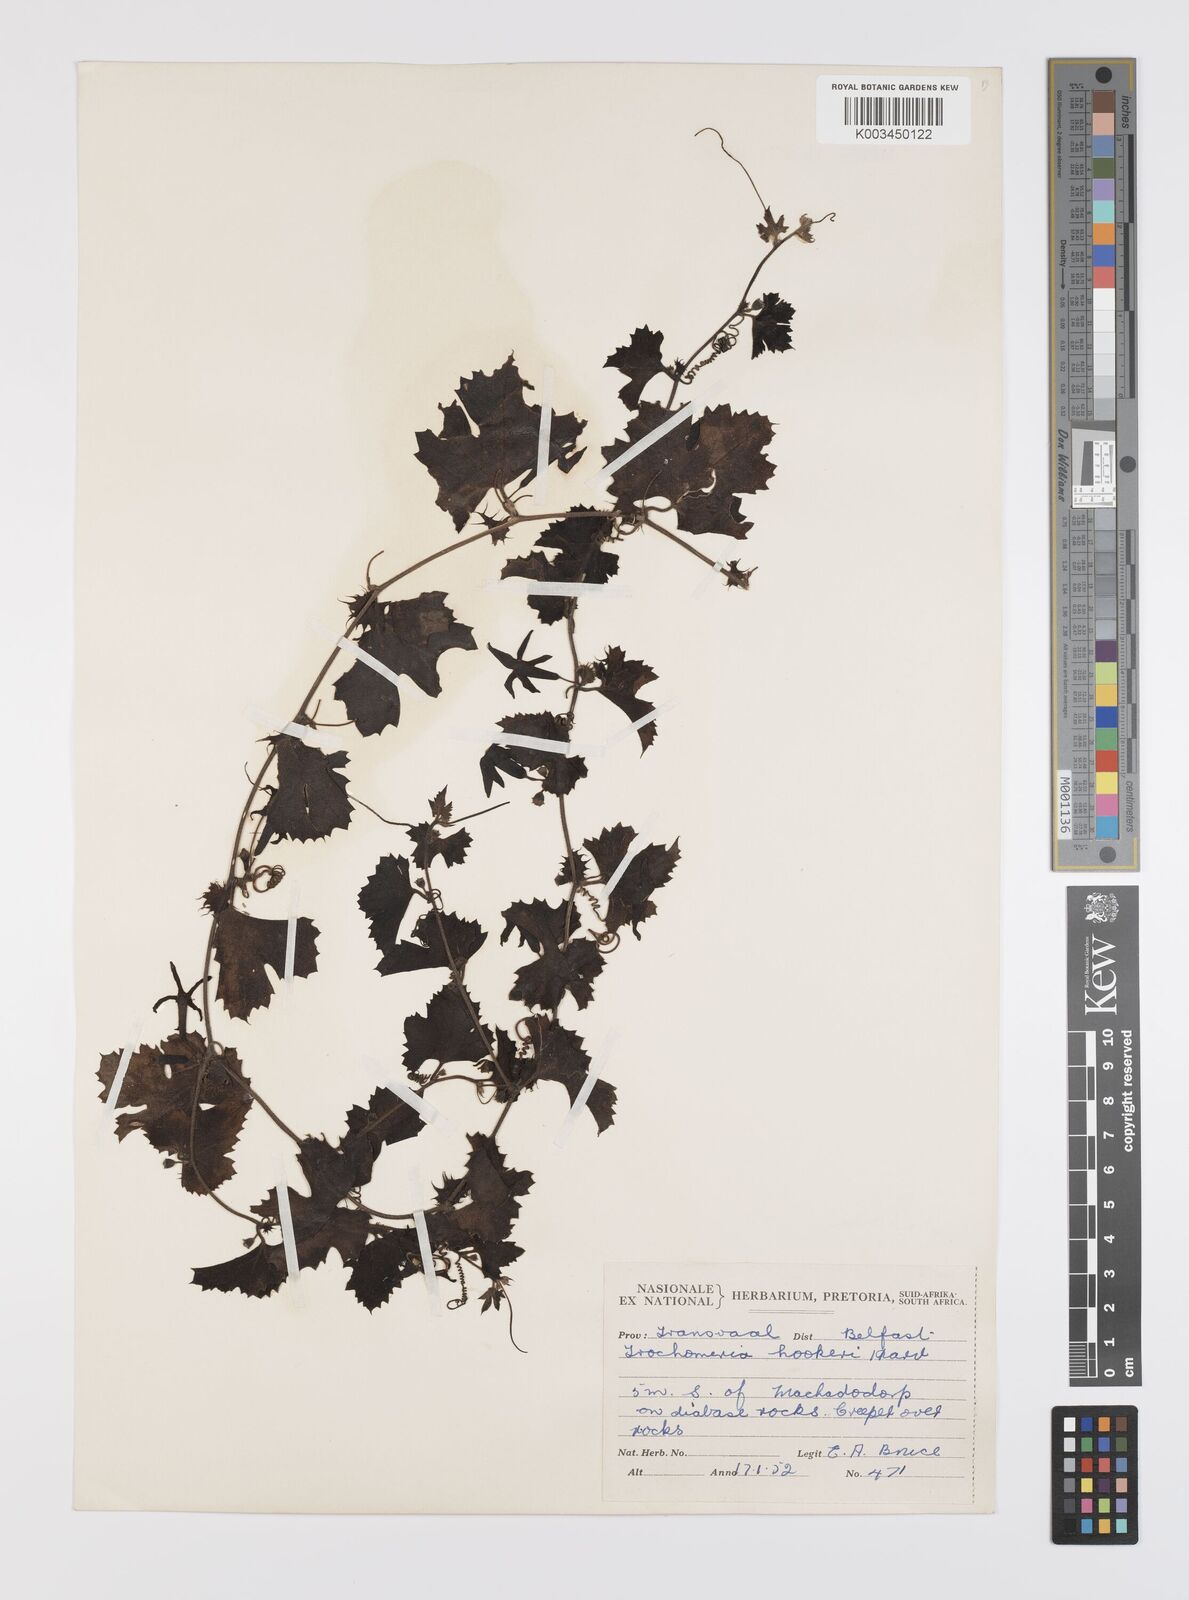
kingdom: Plantae
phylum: Tracheophyta
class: Magnoliopsida
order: Cucurbitales
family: Cucurbitaceae
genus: Trochomeria
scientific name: Trochomeria hookeri
